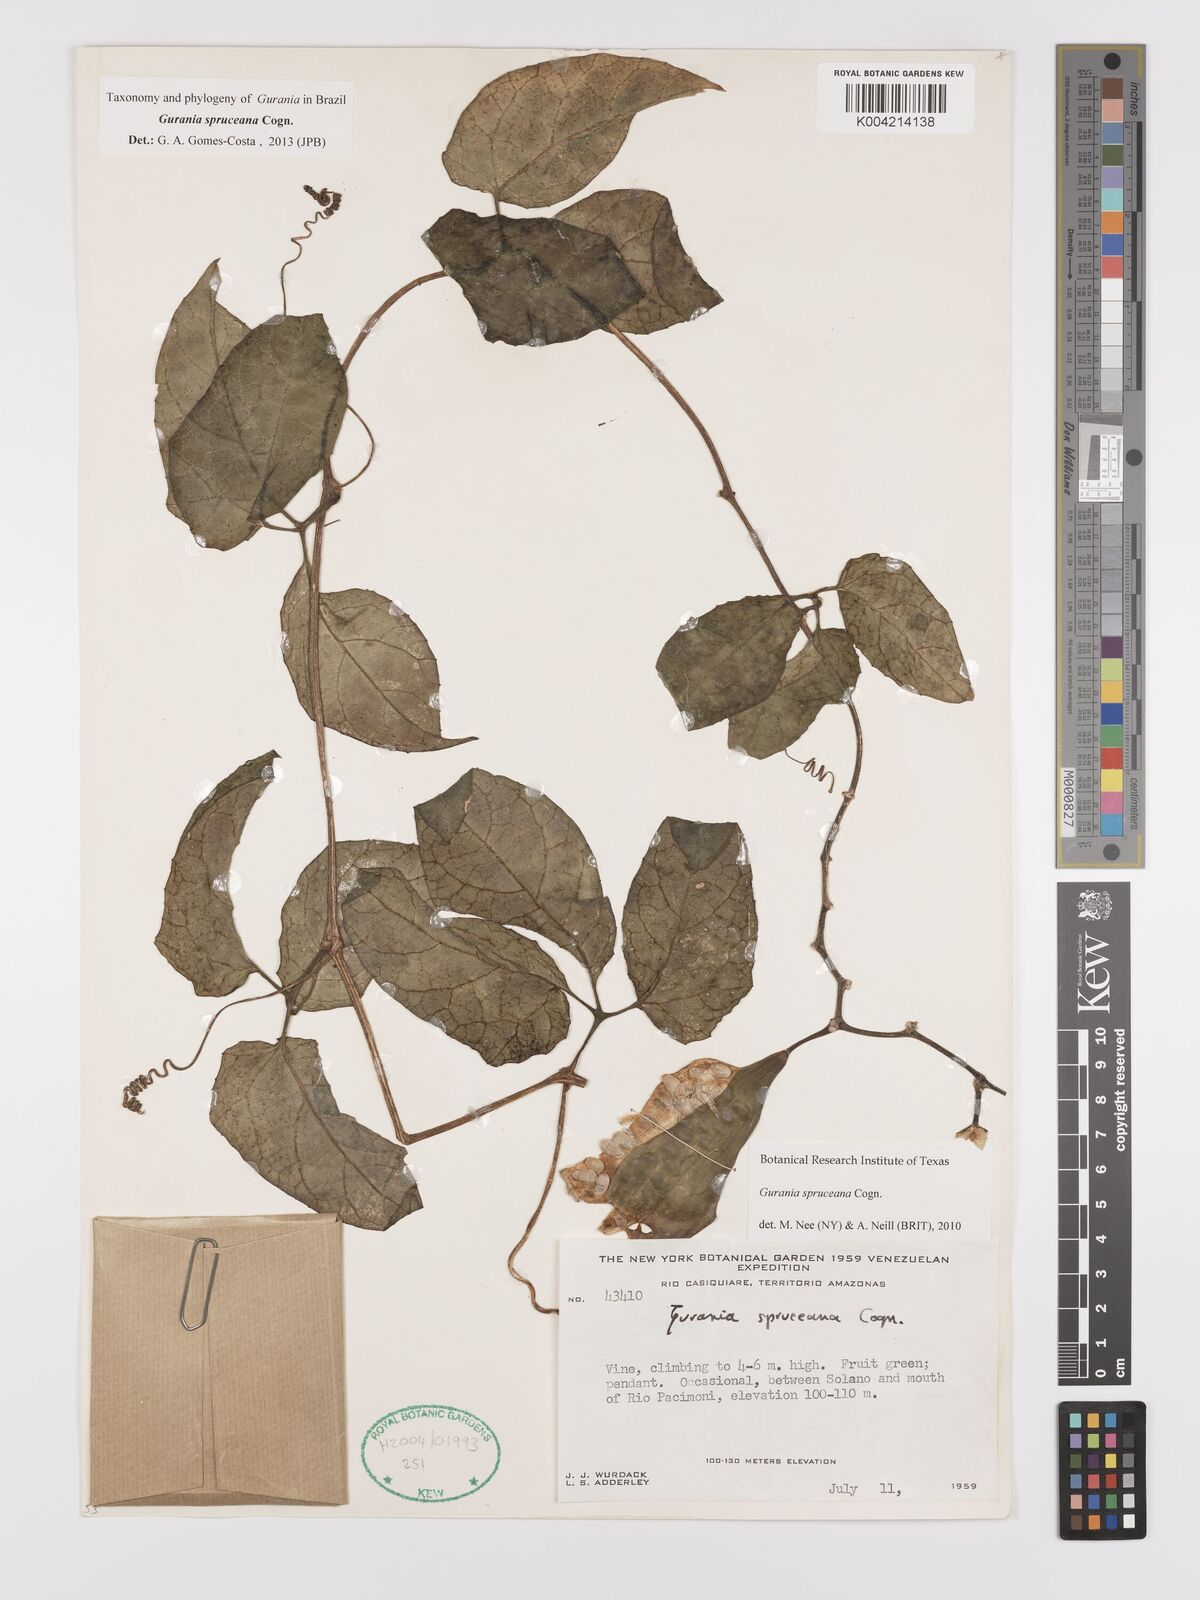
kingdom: Plantae
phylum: Tracheophyta
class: Magnoliopsida
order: Cucurbitales
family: Cucurbitaceae
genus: Gurania
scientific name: Gurania spruceana
